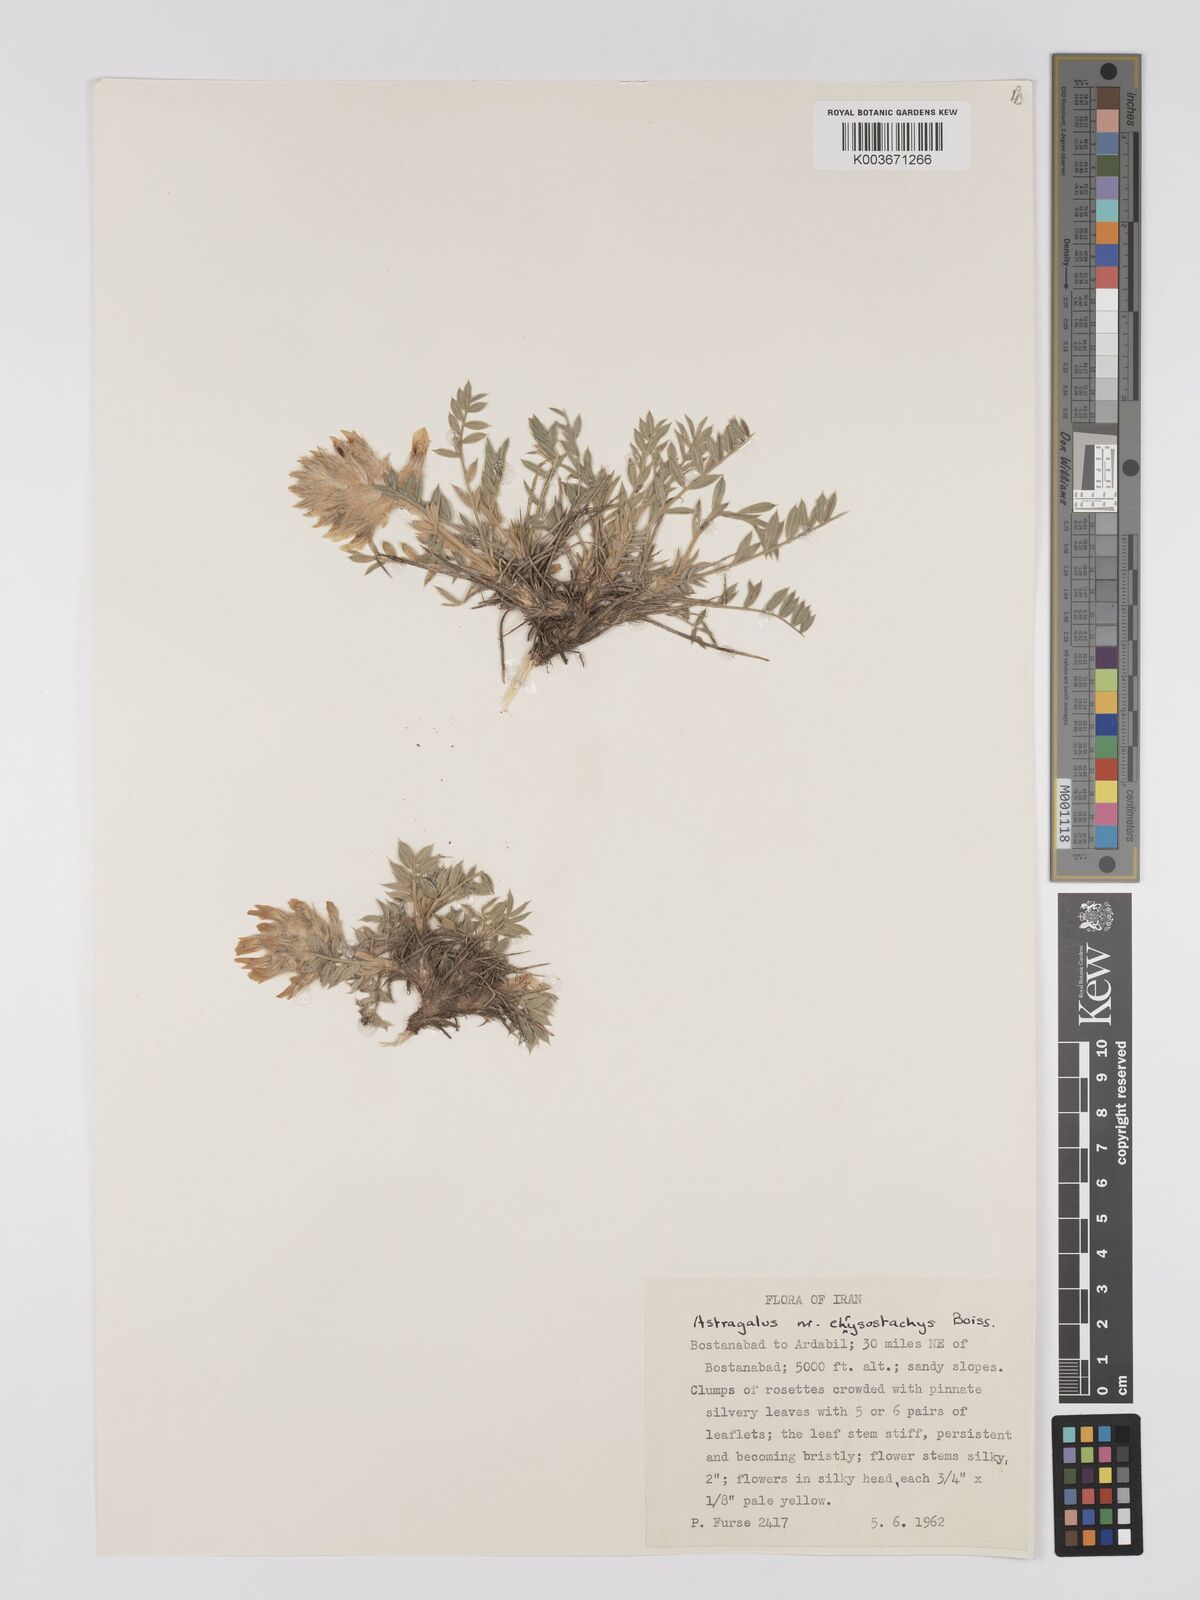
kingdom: Plantae
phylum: Tracheophyta
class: Magnoliopsida
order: Fabales
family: Fabaceae
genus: Astragalus
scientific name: Astragalus chrysostachys
